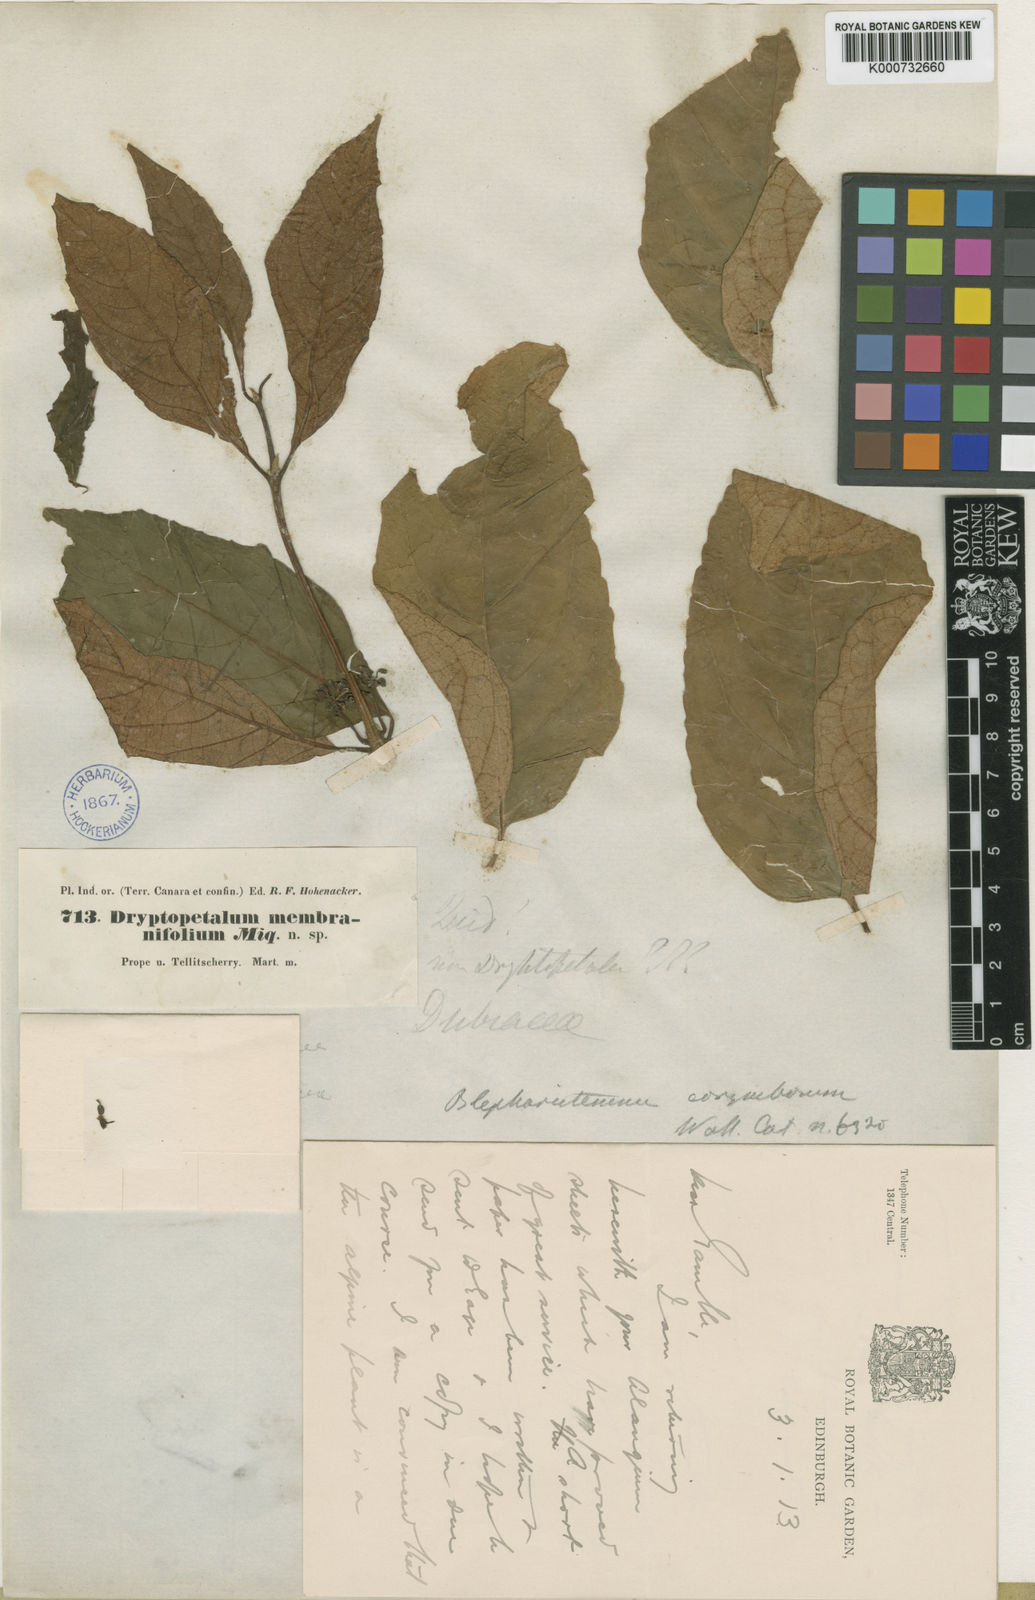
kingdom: Plantae
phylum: Tracheophyta
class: Magnoliopsida
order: Malpighiales
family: Rhizophoraceae
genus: Blepharistemma
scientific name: Blepharistemma serratum
